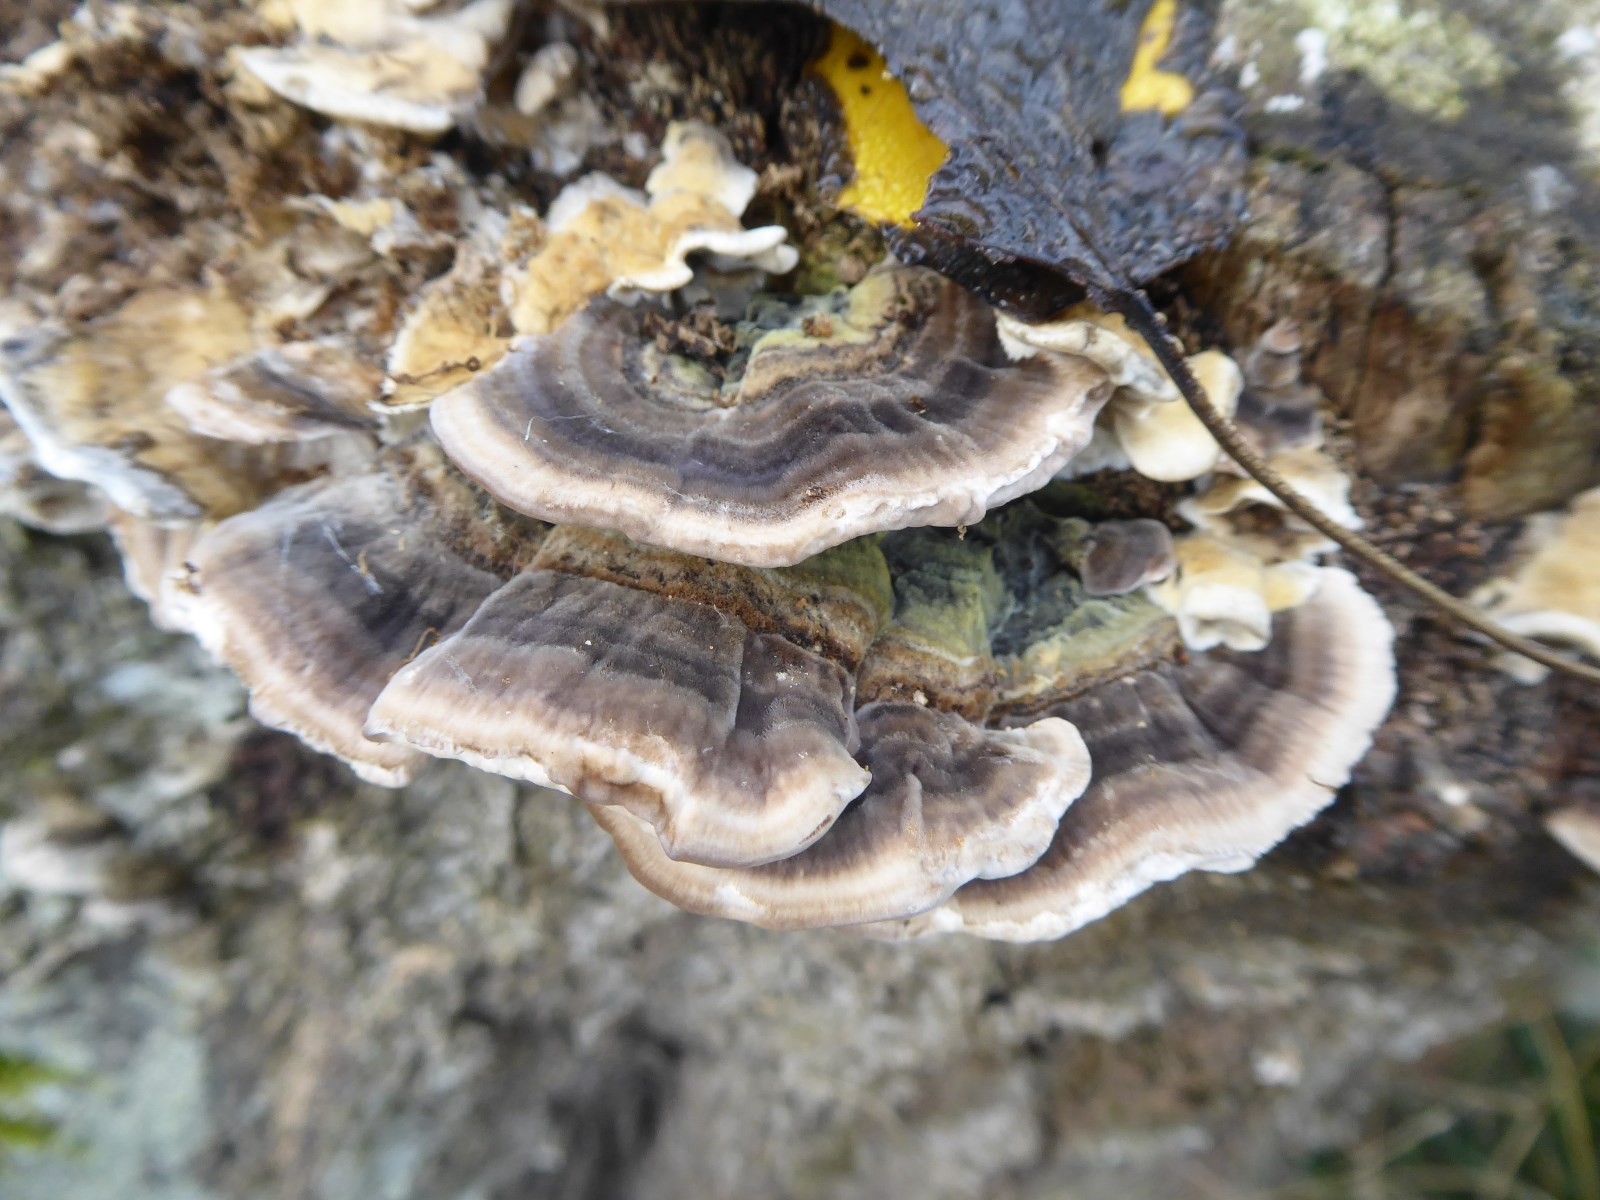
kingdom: Fungi
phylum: Basidiomycota
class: Agaricomycetes
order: Polyporales
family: Polyporaceae
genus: Trametes
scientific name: Trametes versicolor
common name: broget læderporesvamp
